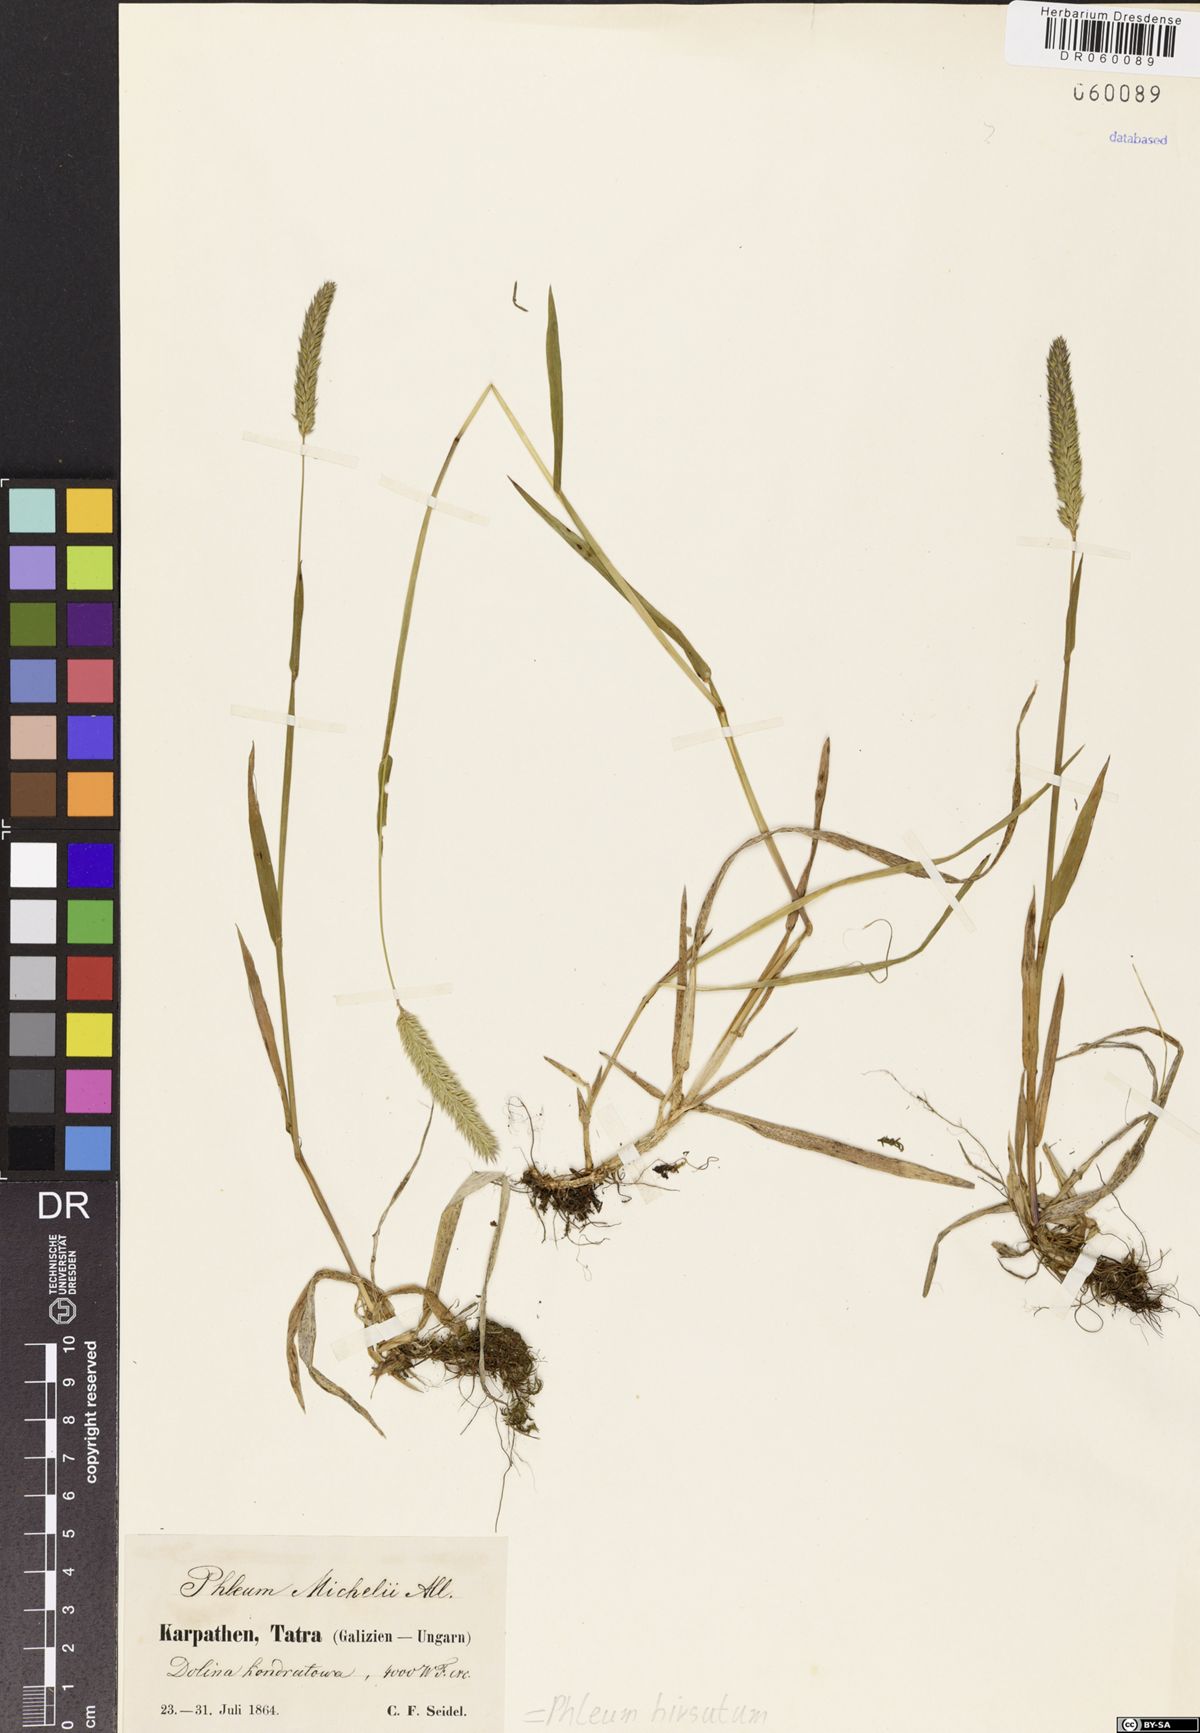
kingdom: Plantae
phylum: Tracheophyta
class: Liliopsida
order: Poales
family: Poaceae
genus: Phleum
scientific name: Phleum hirsutum
